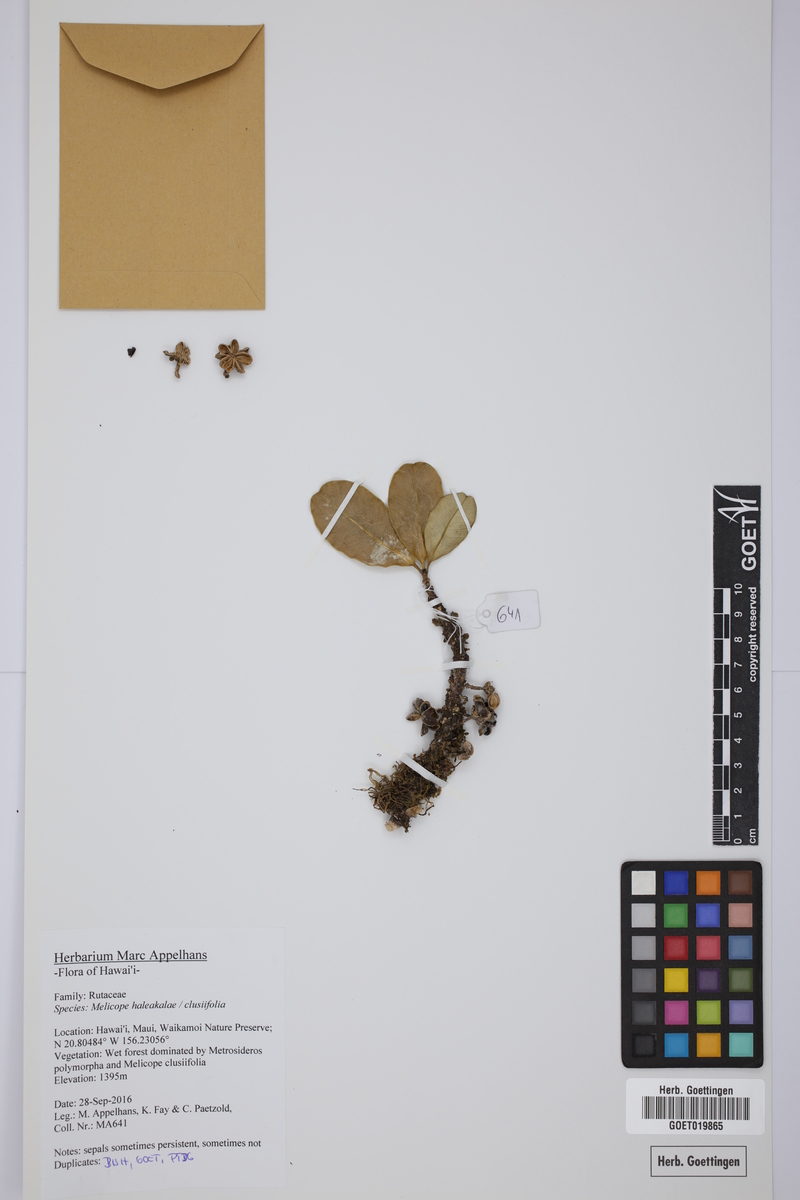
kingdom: Plantae
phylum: Tracheophyta
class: Magnoliopsida
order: Sapindales
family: Rutaceae
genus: Melicope
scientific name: Melicope haleakalae
